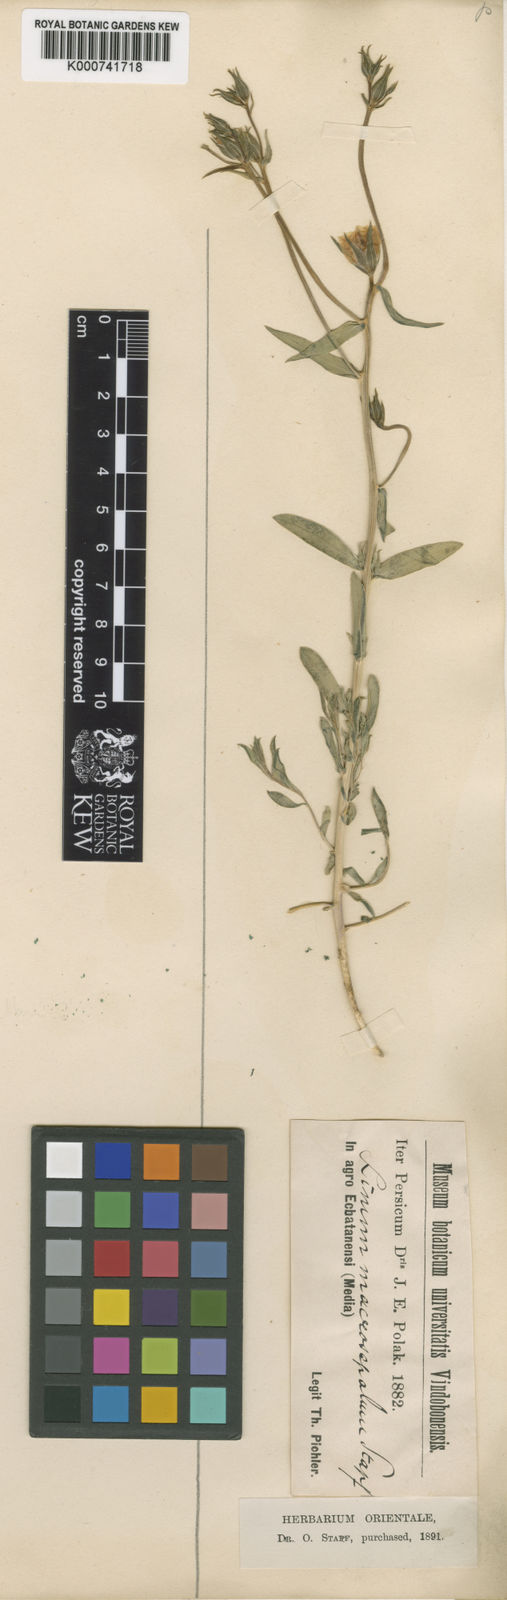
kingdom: Plantae
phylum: Tracheophyta
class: Magnoliopsida
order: Malpighiales
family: Linaceae
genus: Linum
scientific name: Linum floridanum
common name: Florida yellow flax
